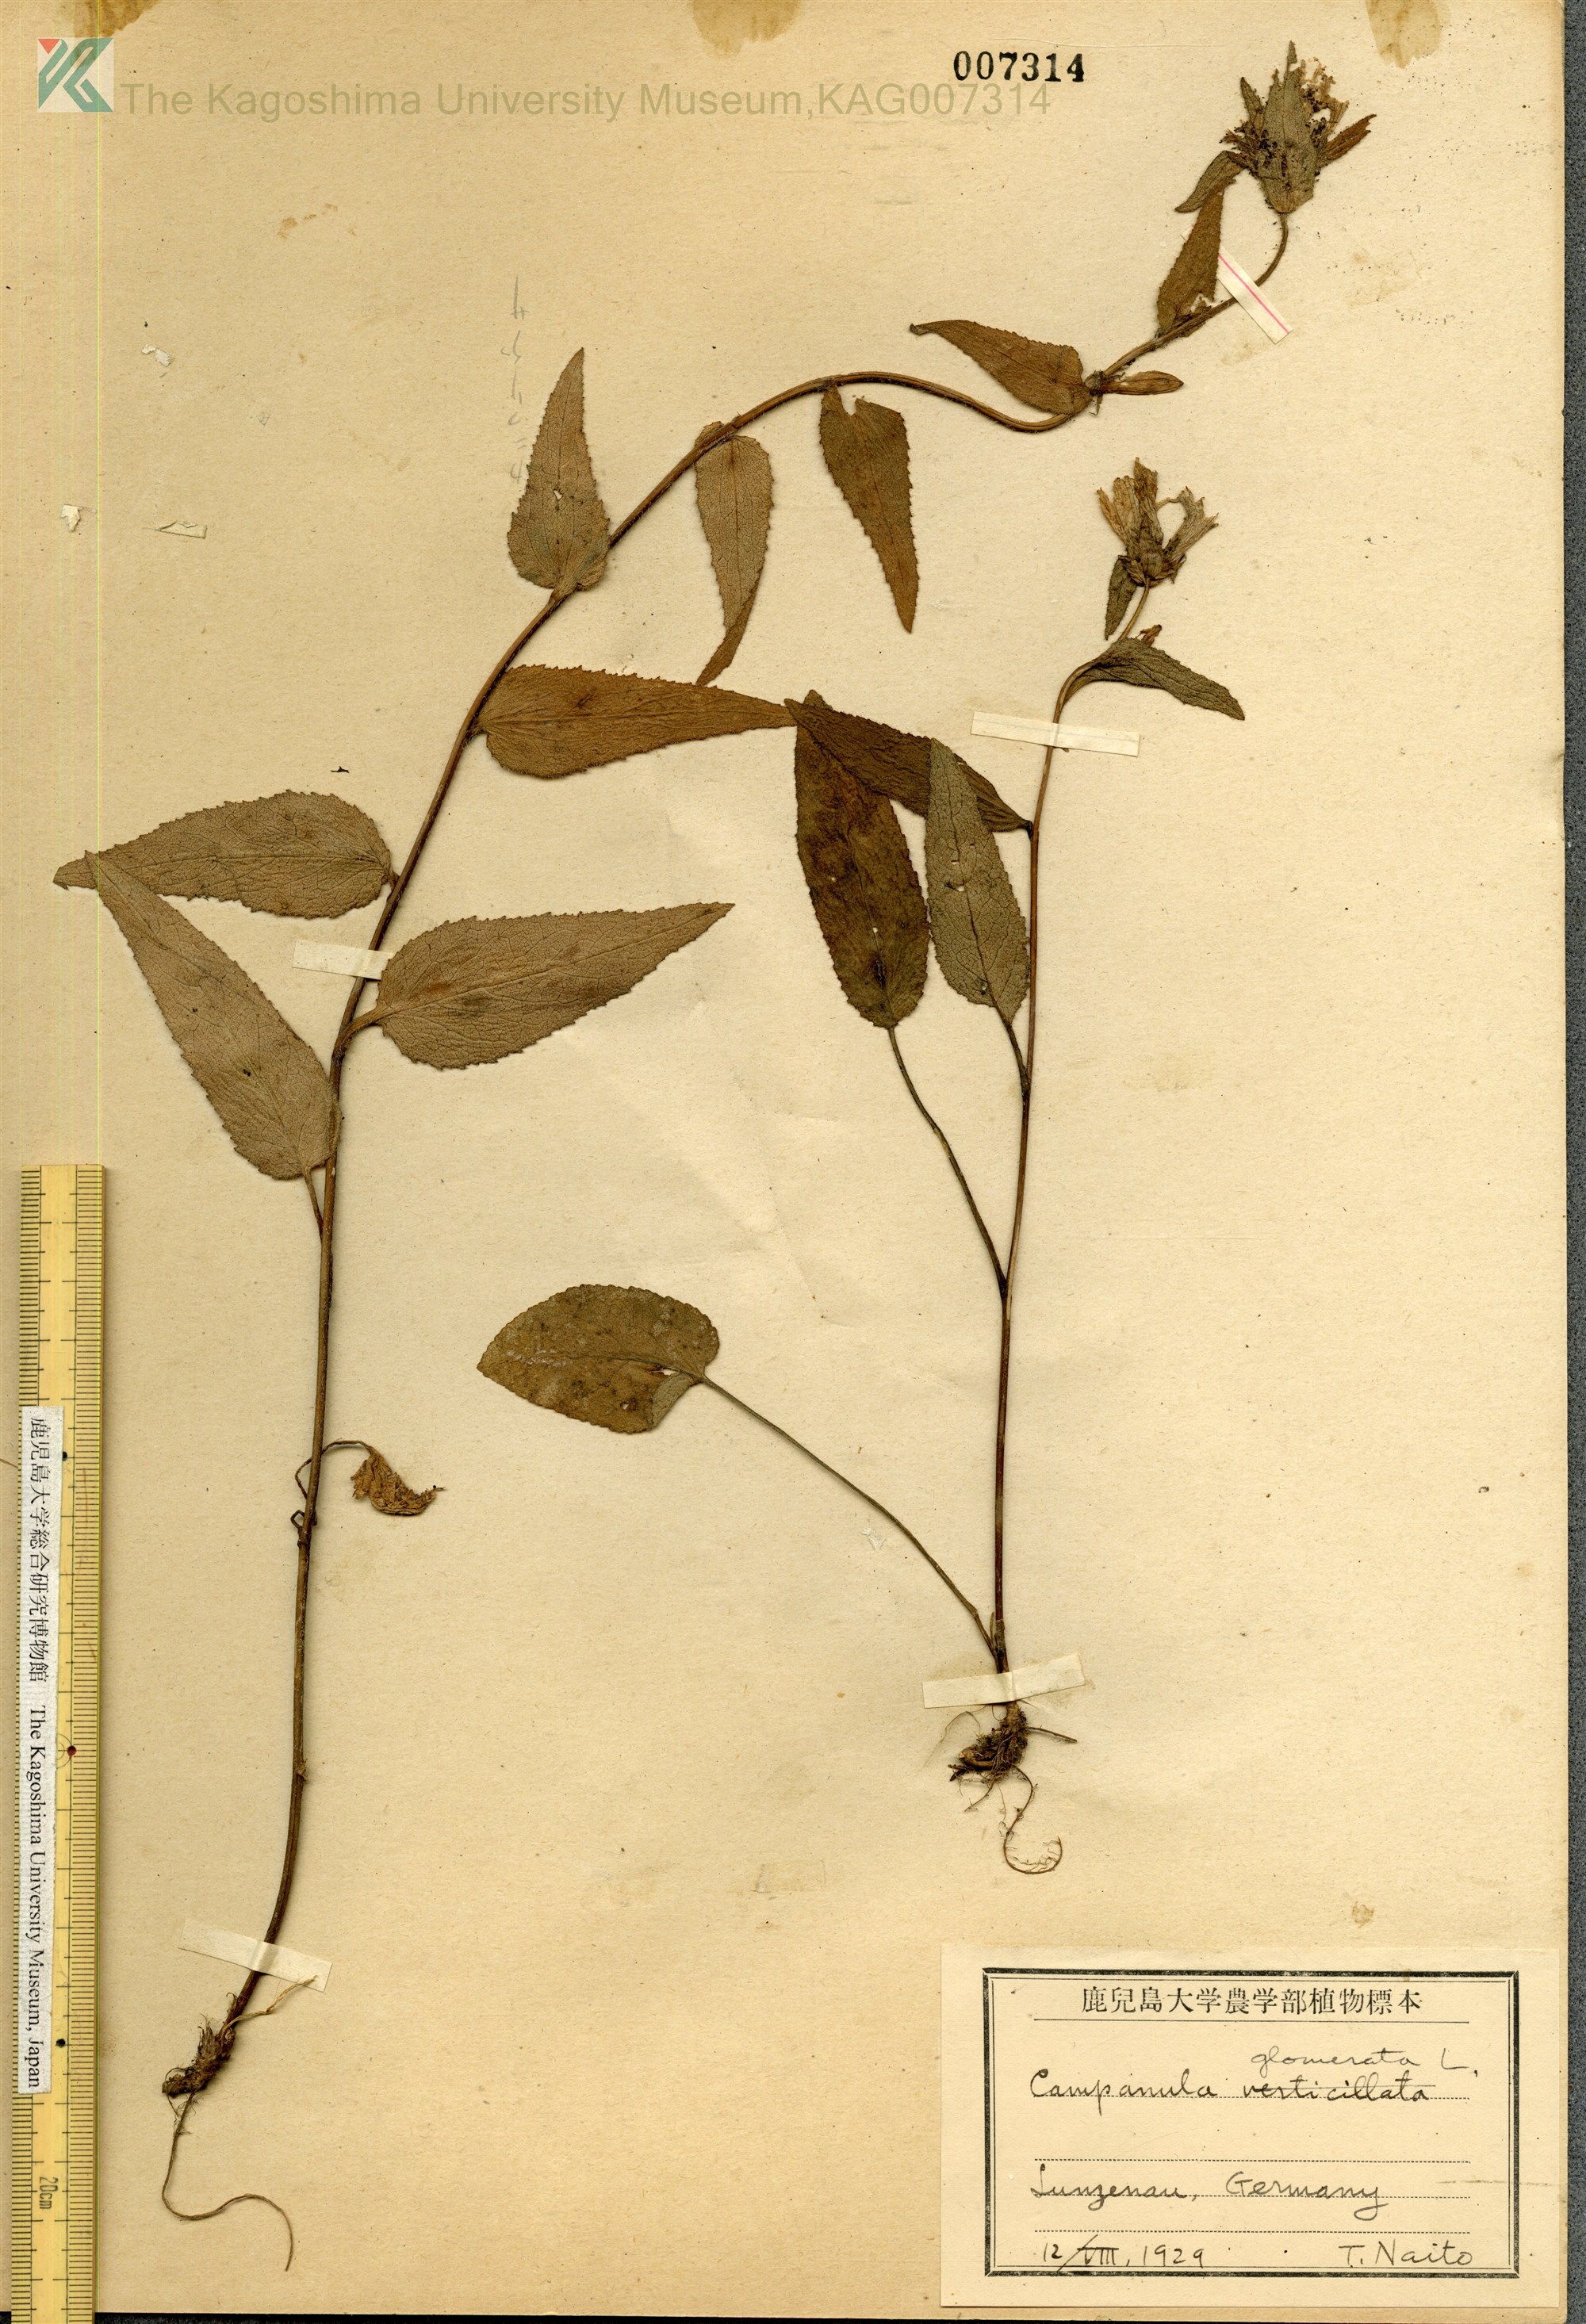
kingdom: Plantae
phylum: Tracheophyta
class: Magnoliopsida
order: Asterales
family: Campanulaceae
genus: Campanula
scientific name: Campanula glomerata
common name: Clustered bellflower
